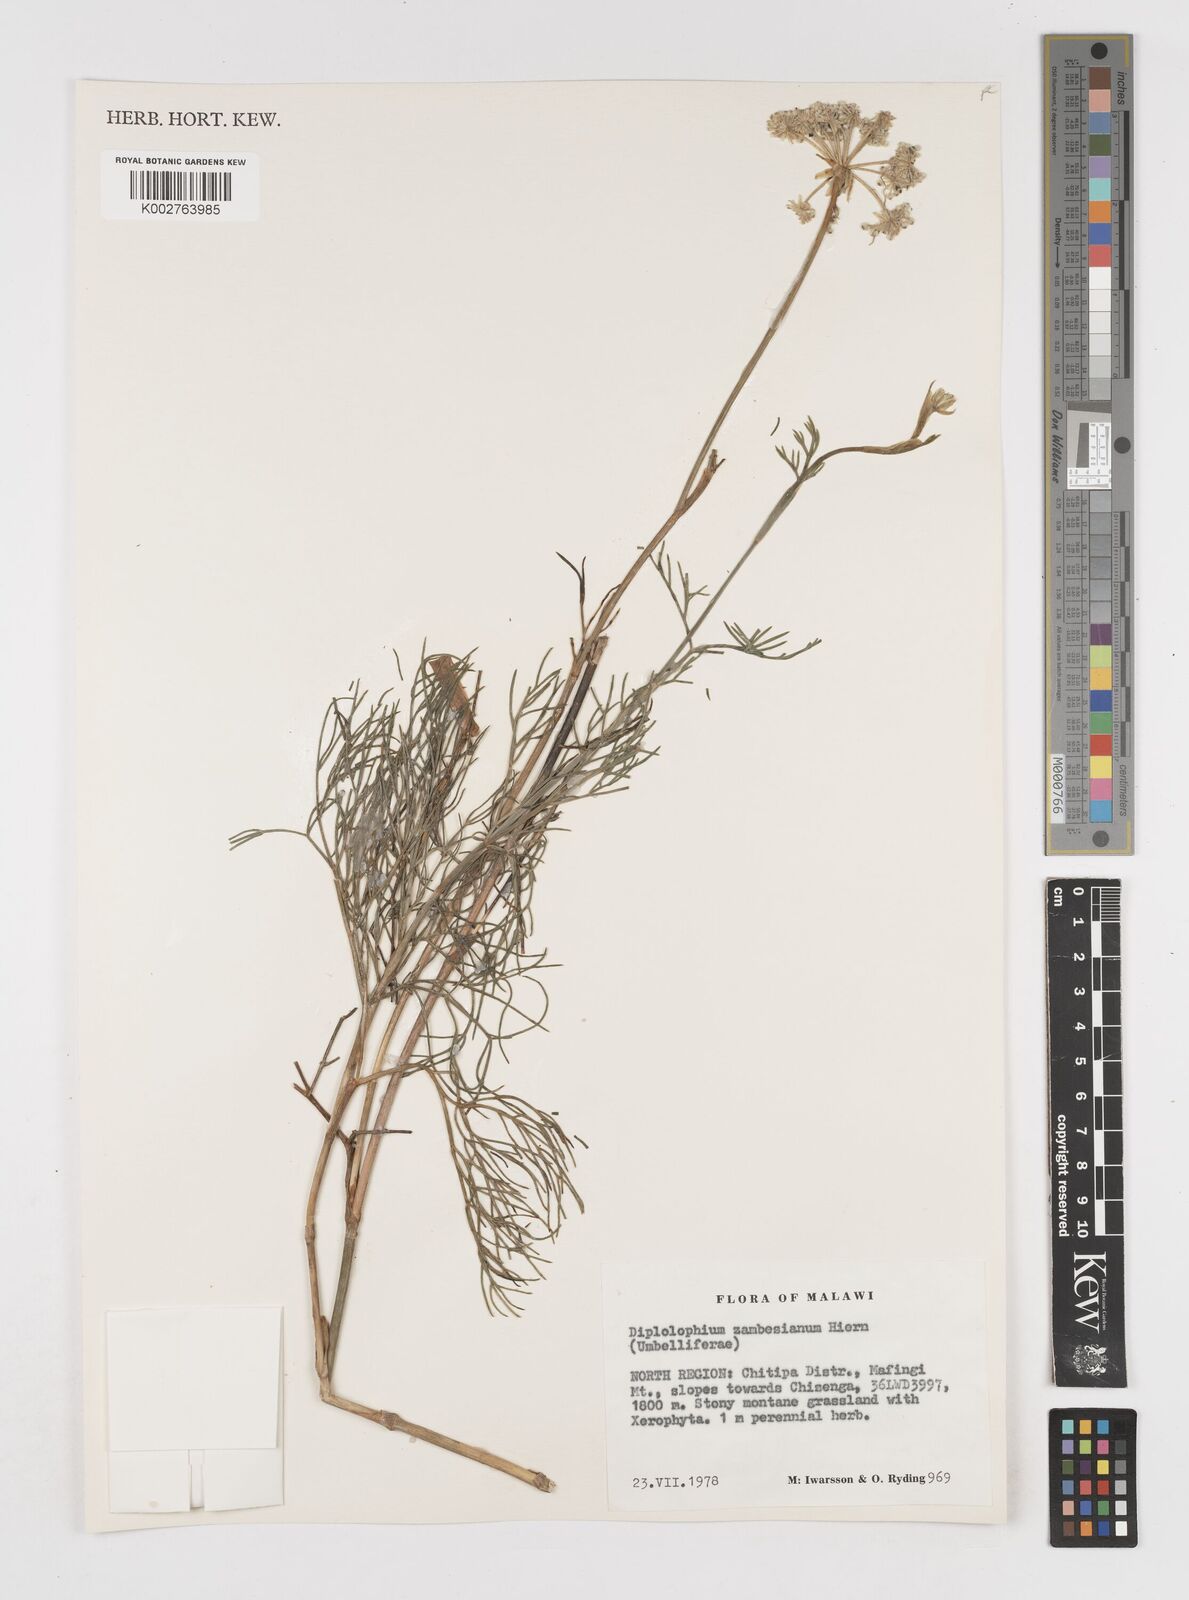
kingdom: Plantae
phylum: Tracheophyta
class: Magnoliopsida
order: Apiales
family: Apiaceae
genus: Diplolophium
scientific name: Diplolophium zambesianum
